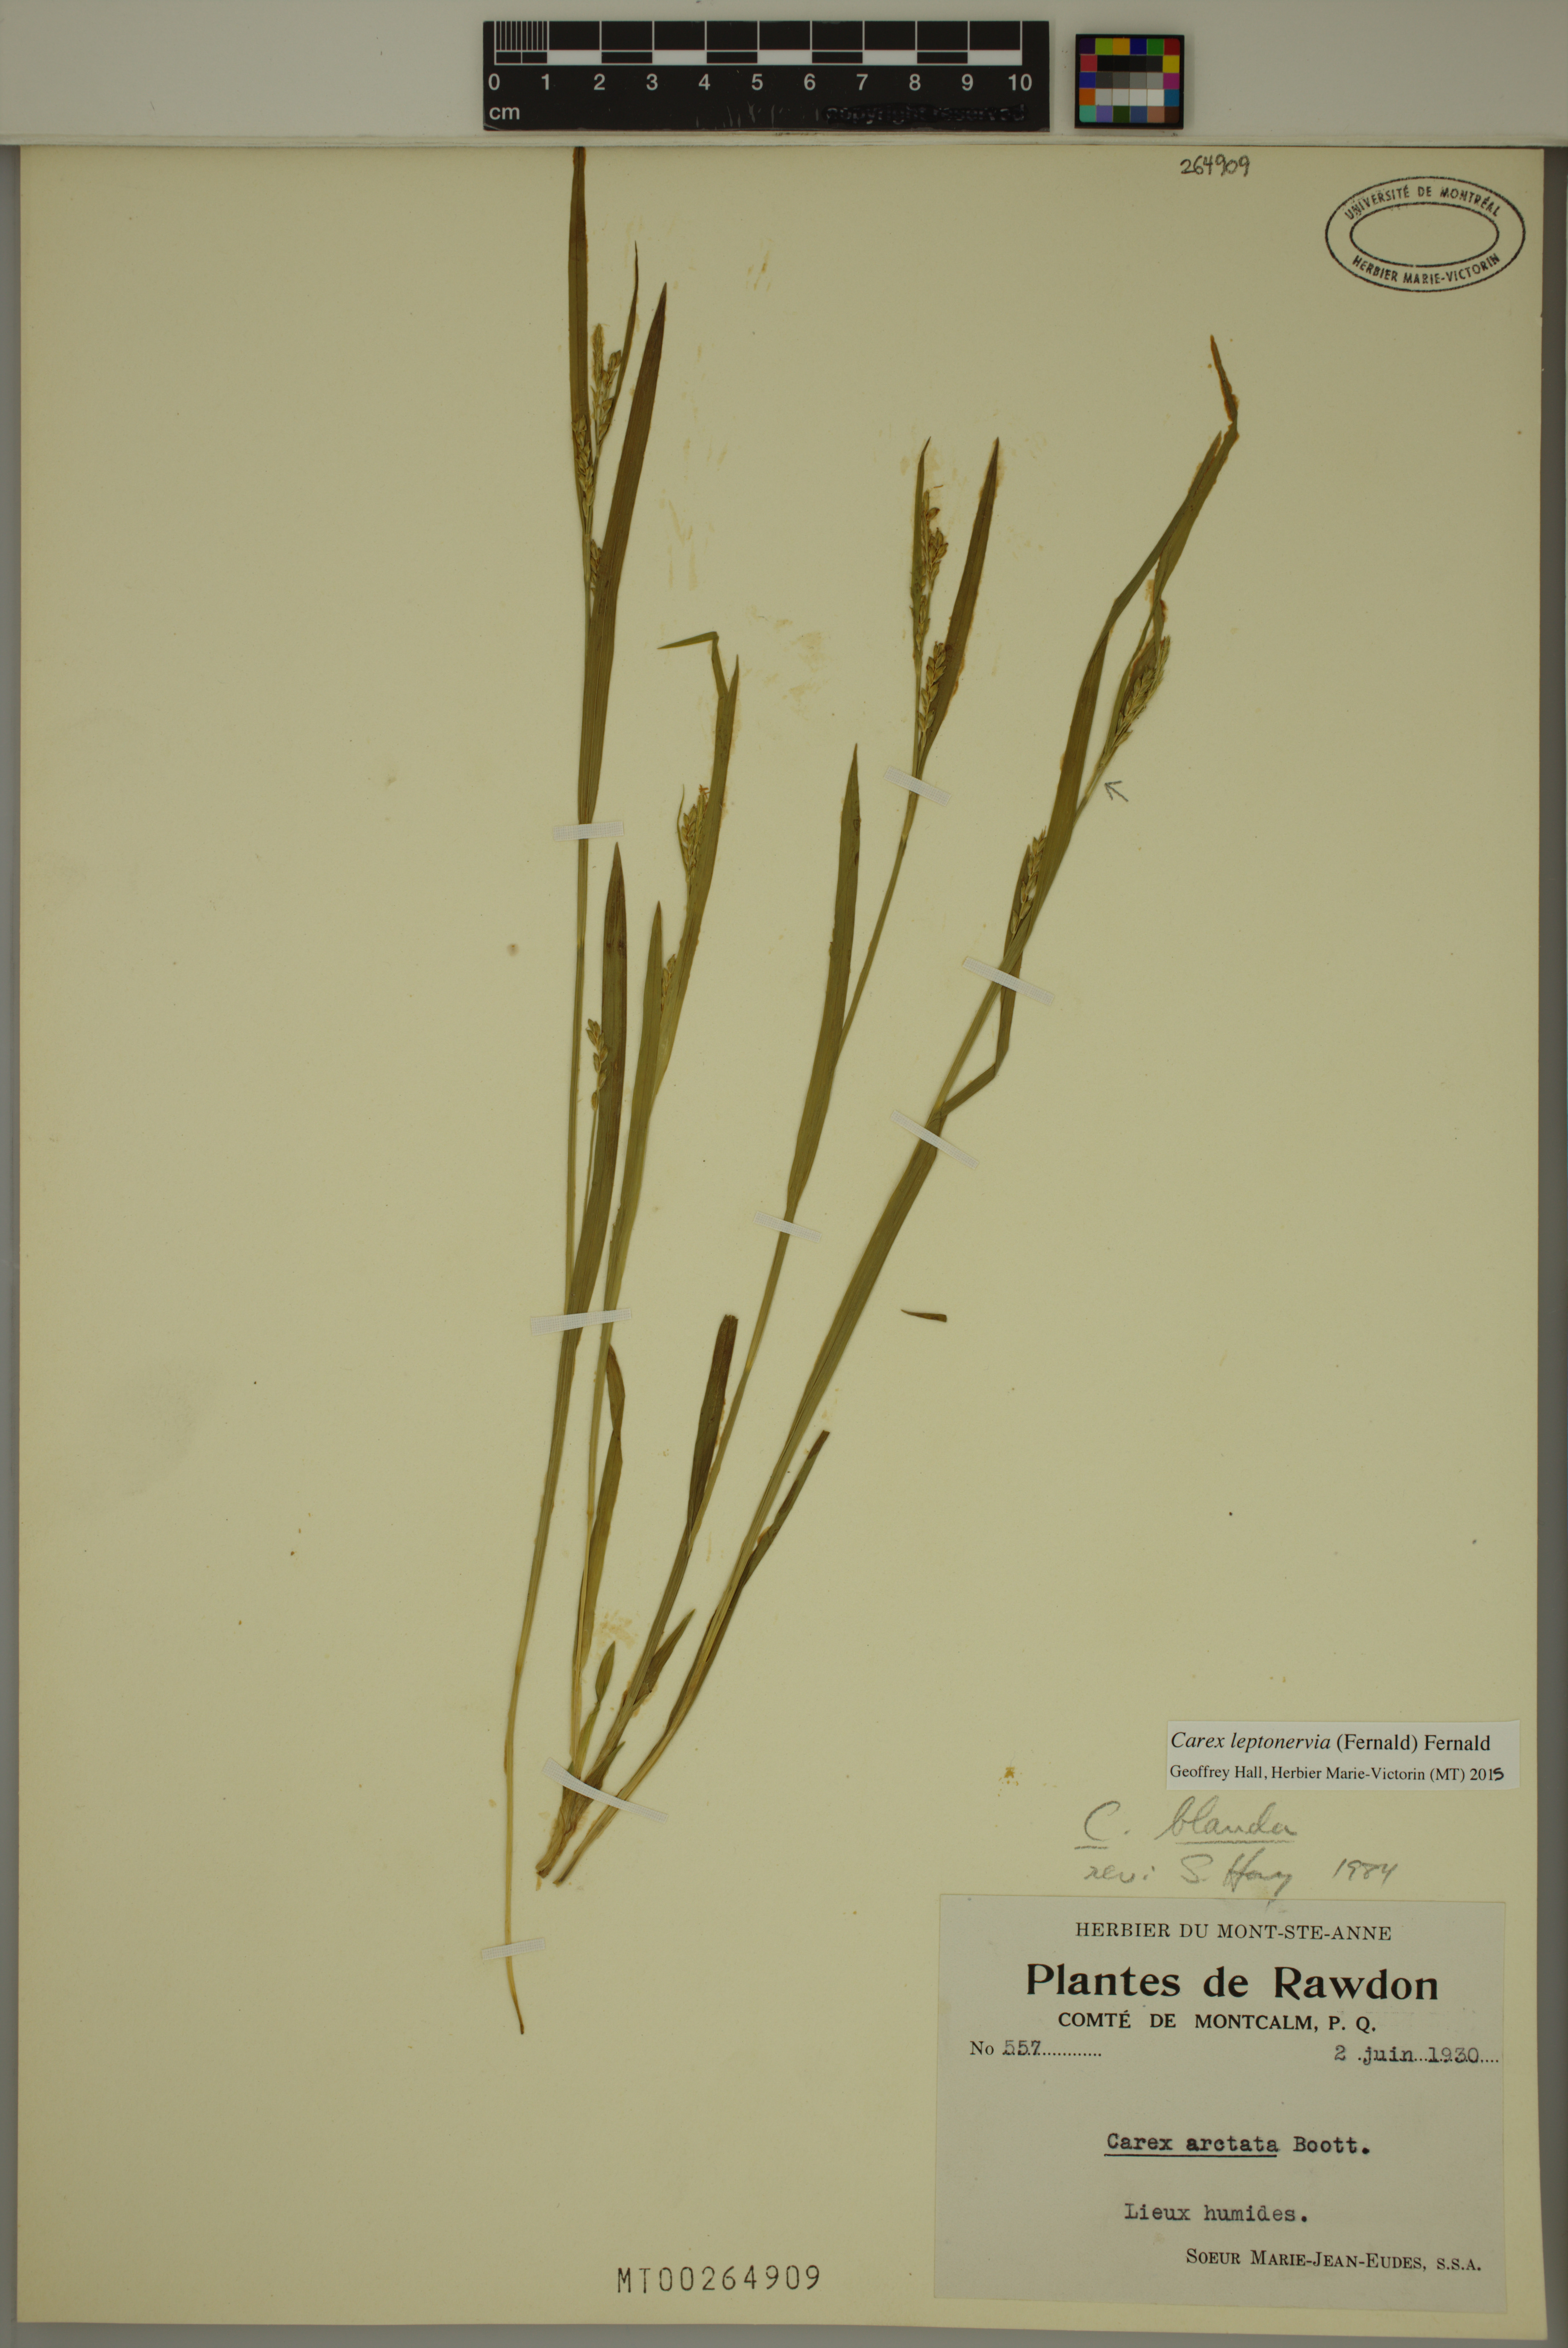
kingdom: Plantae
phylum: Tracheophyta
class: Liliopsida
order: Poales
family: Cyperaceae
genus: Carex
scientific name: Carex leptonervia
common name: Few-nerved wood sedge
